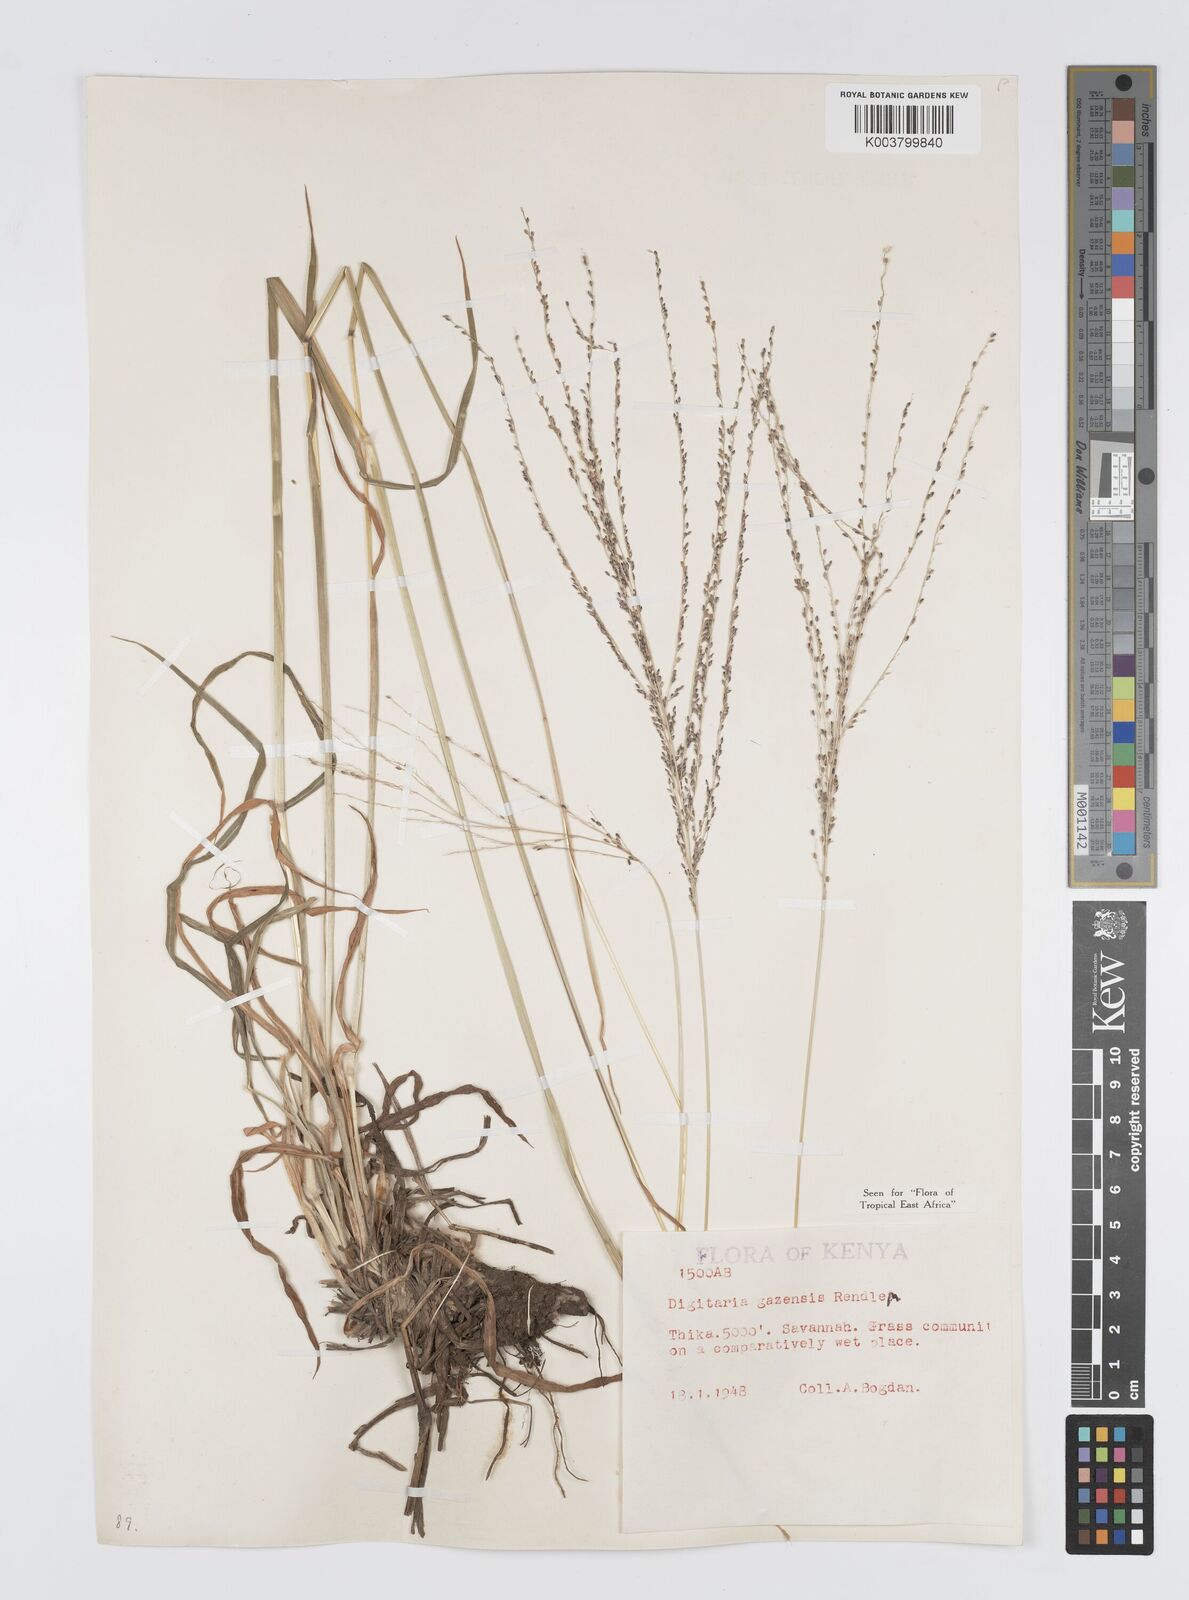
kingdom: Plantae
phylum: Tracheophyta
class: Liliopsida
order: Poales
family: Poaceae
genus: Digitaria
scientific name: Digitaria gazensis
